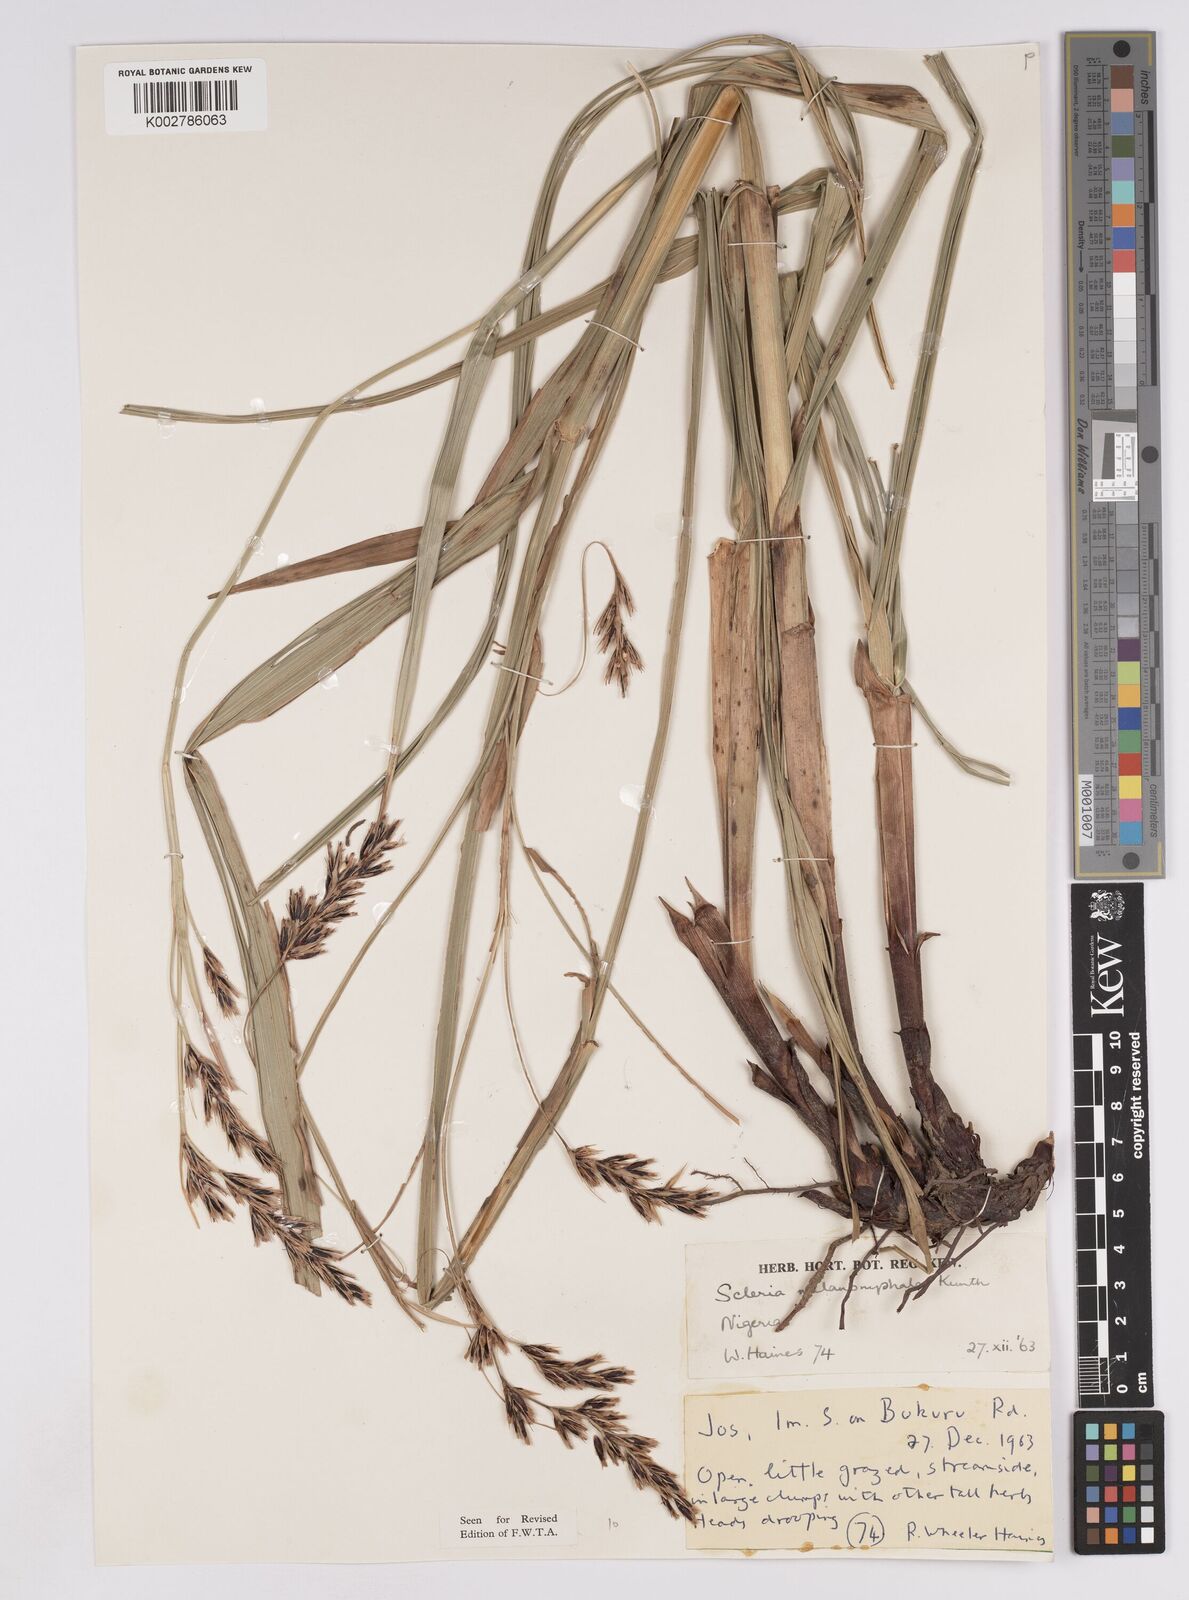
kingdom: Plantae
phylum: Tracheophyta
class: Liliopsida
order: Poales
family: Cyperaceae
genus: Scleria
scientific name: Scleria melanomphala
